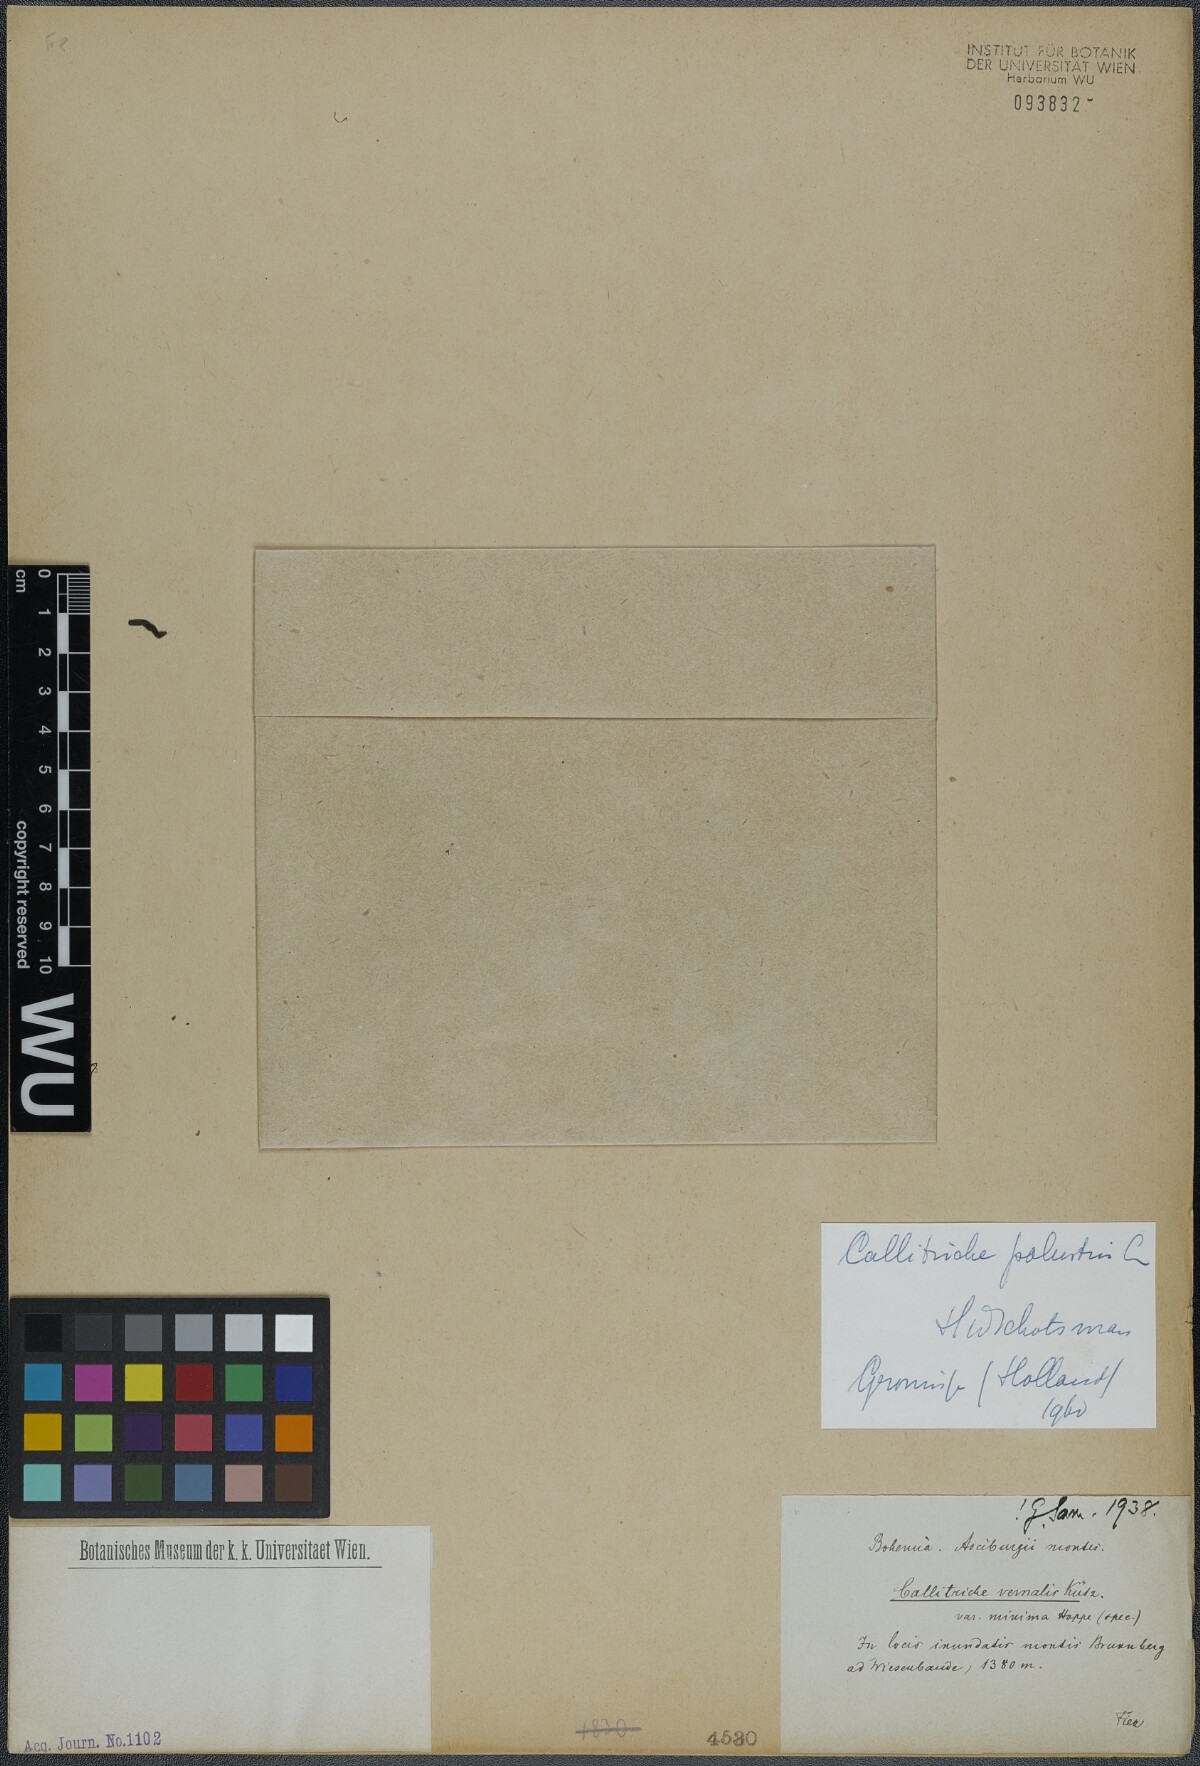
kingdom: Plantae
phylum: Tracheophyta
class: Magnoliopsida
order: Lamiales
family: Plantaginaceae
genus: Callitriche
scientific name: Callitriche palustris
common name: Spring water-starwort
